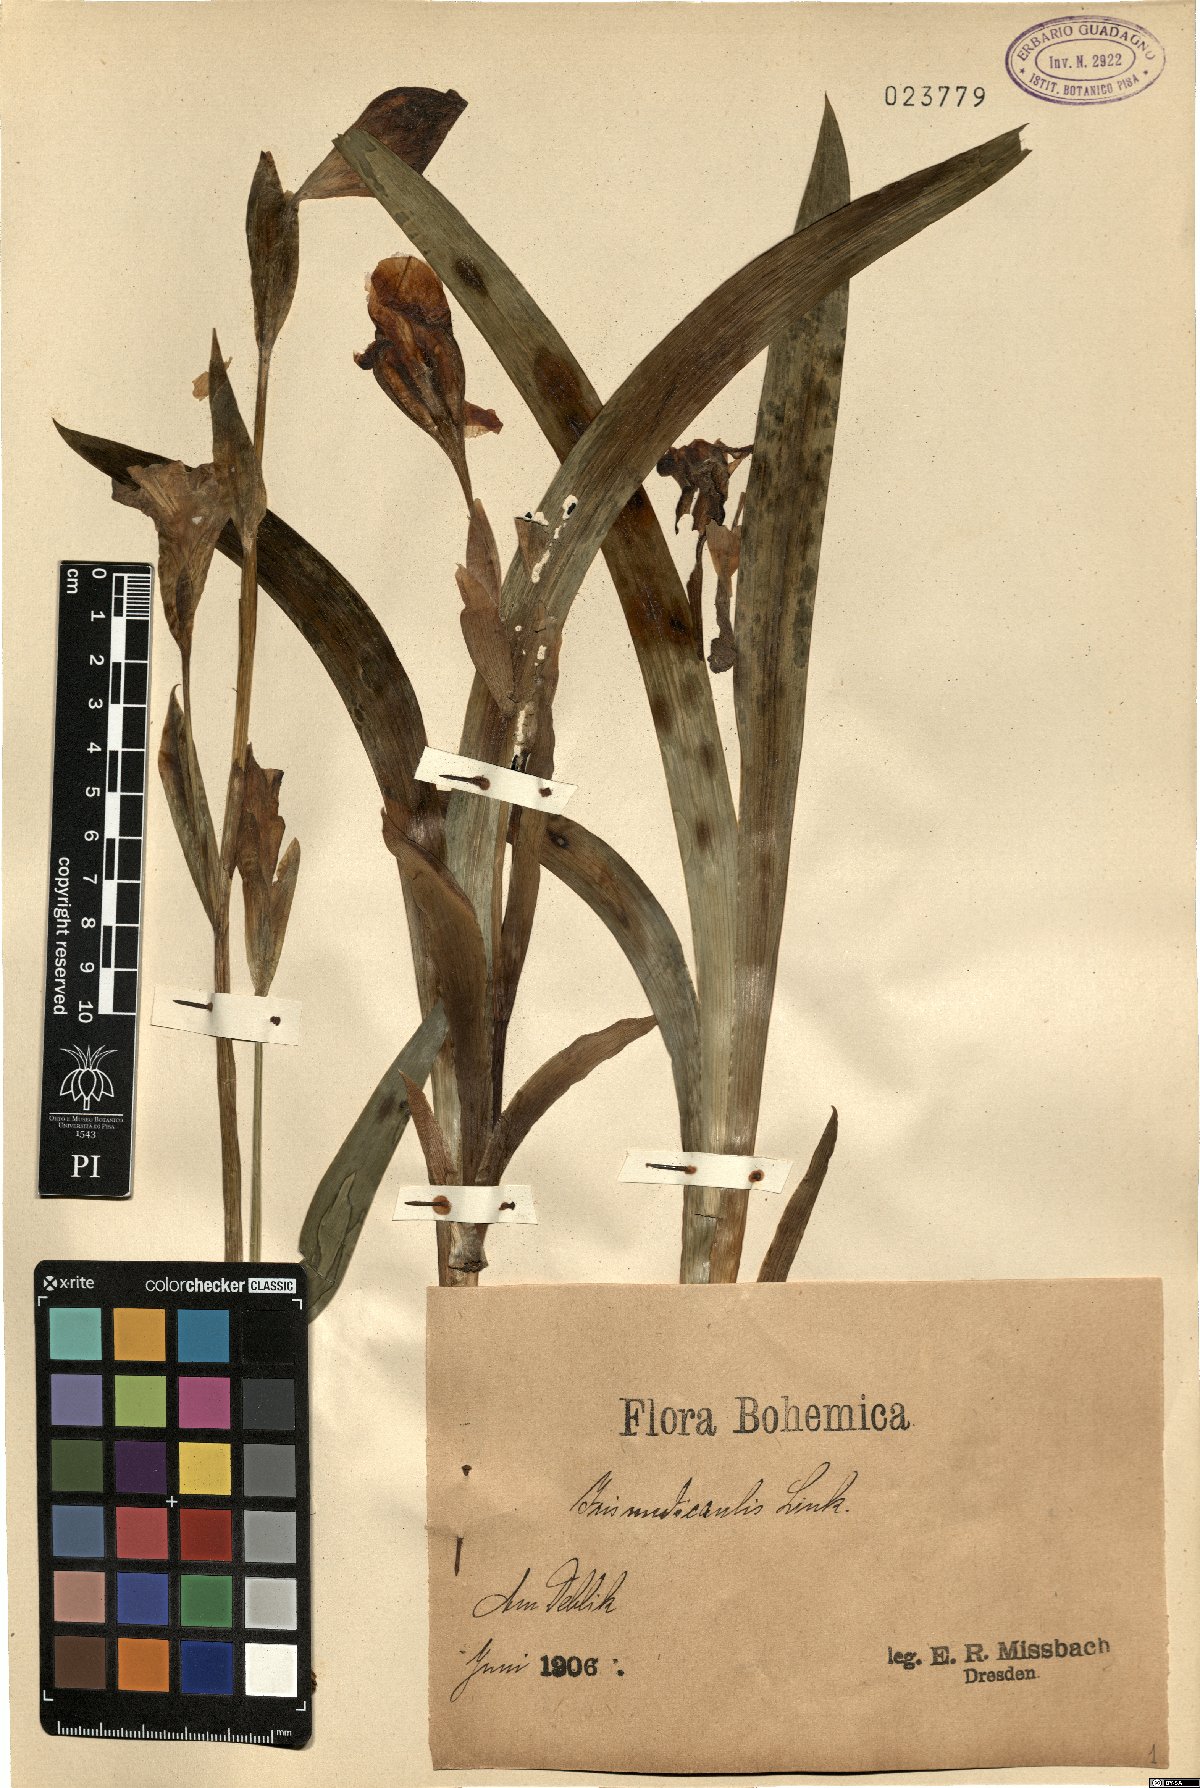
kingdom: Plantae
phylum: Tracheophyta
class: Liliopsida
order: Asparagales
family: Iridaceae
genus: Iris
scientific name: Iris aphylla
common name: Stool iris
